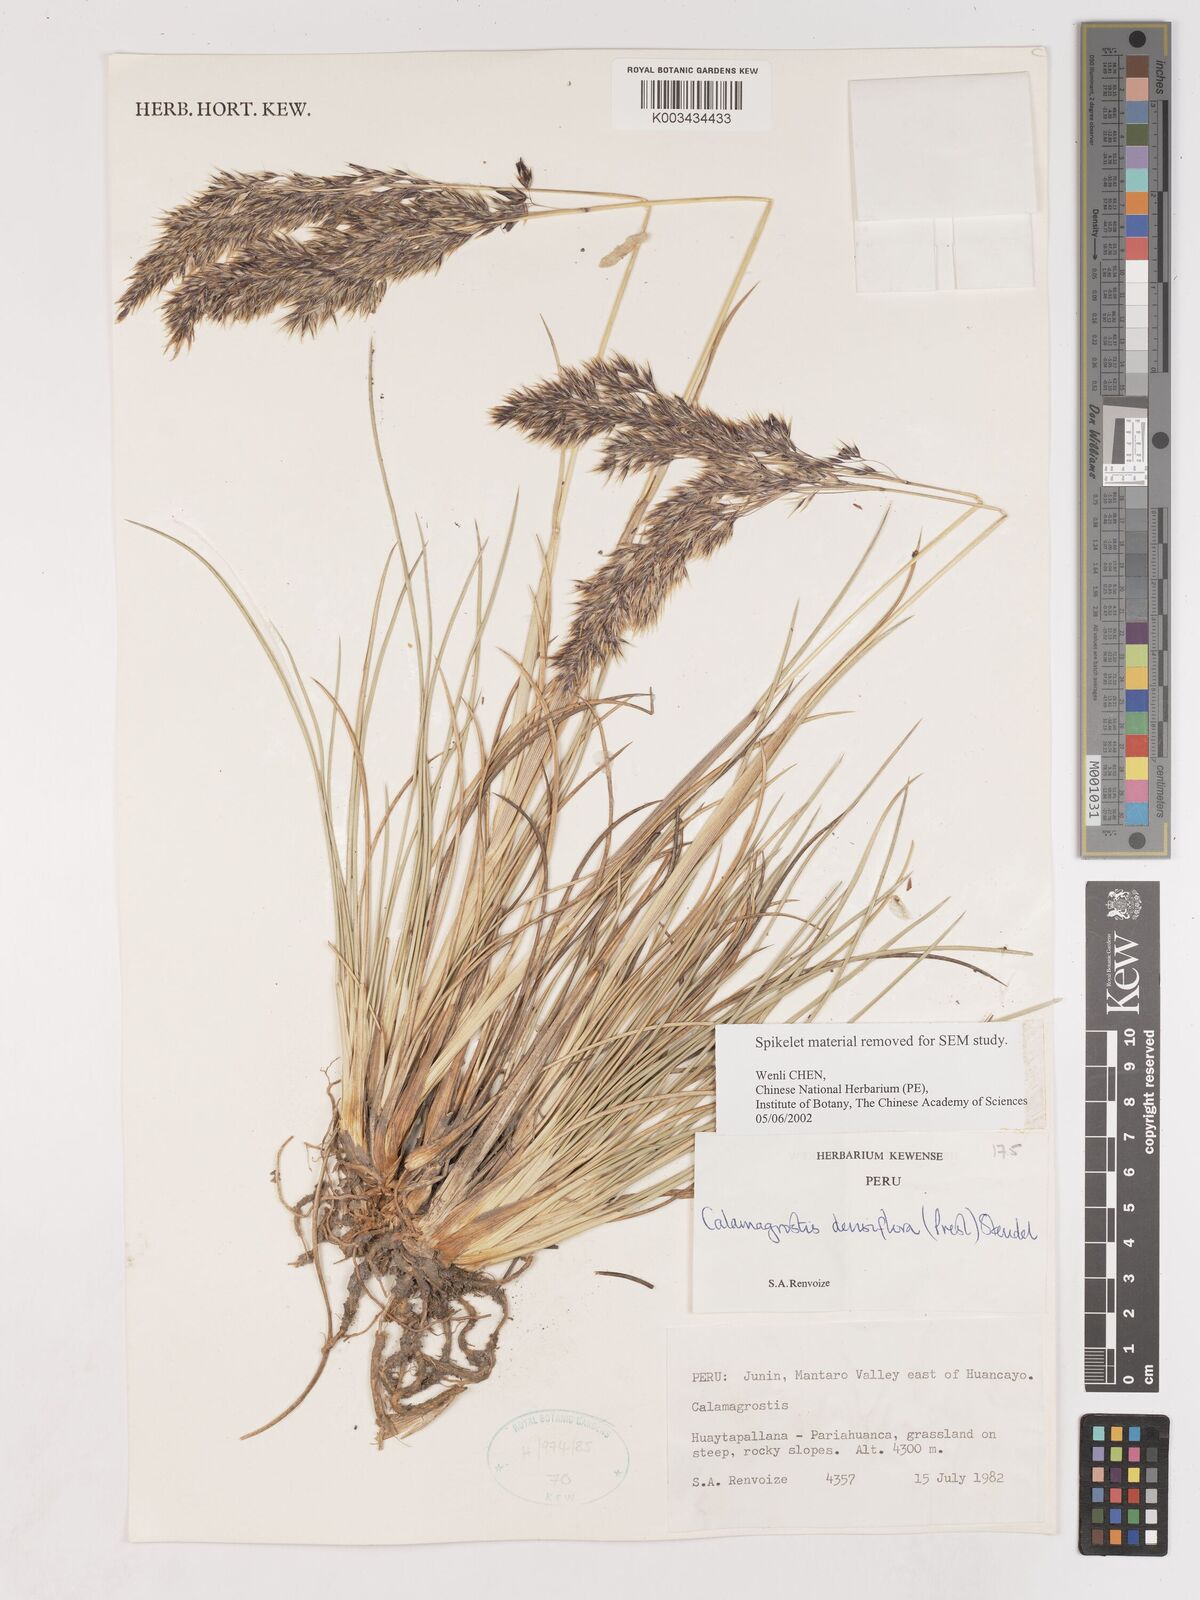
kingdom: Plantae
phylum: Tracheophyta
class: Liliopsida
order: Poales
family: Poaceae
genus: Cinnagrostis
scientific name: Cinnagrostis densiflora
